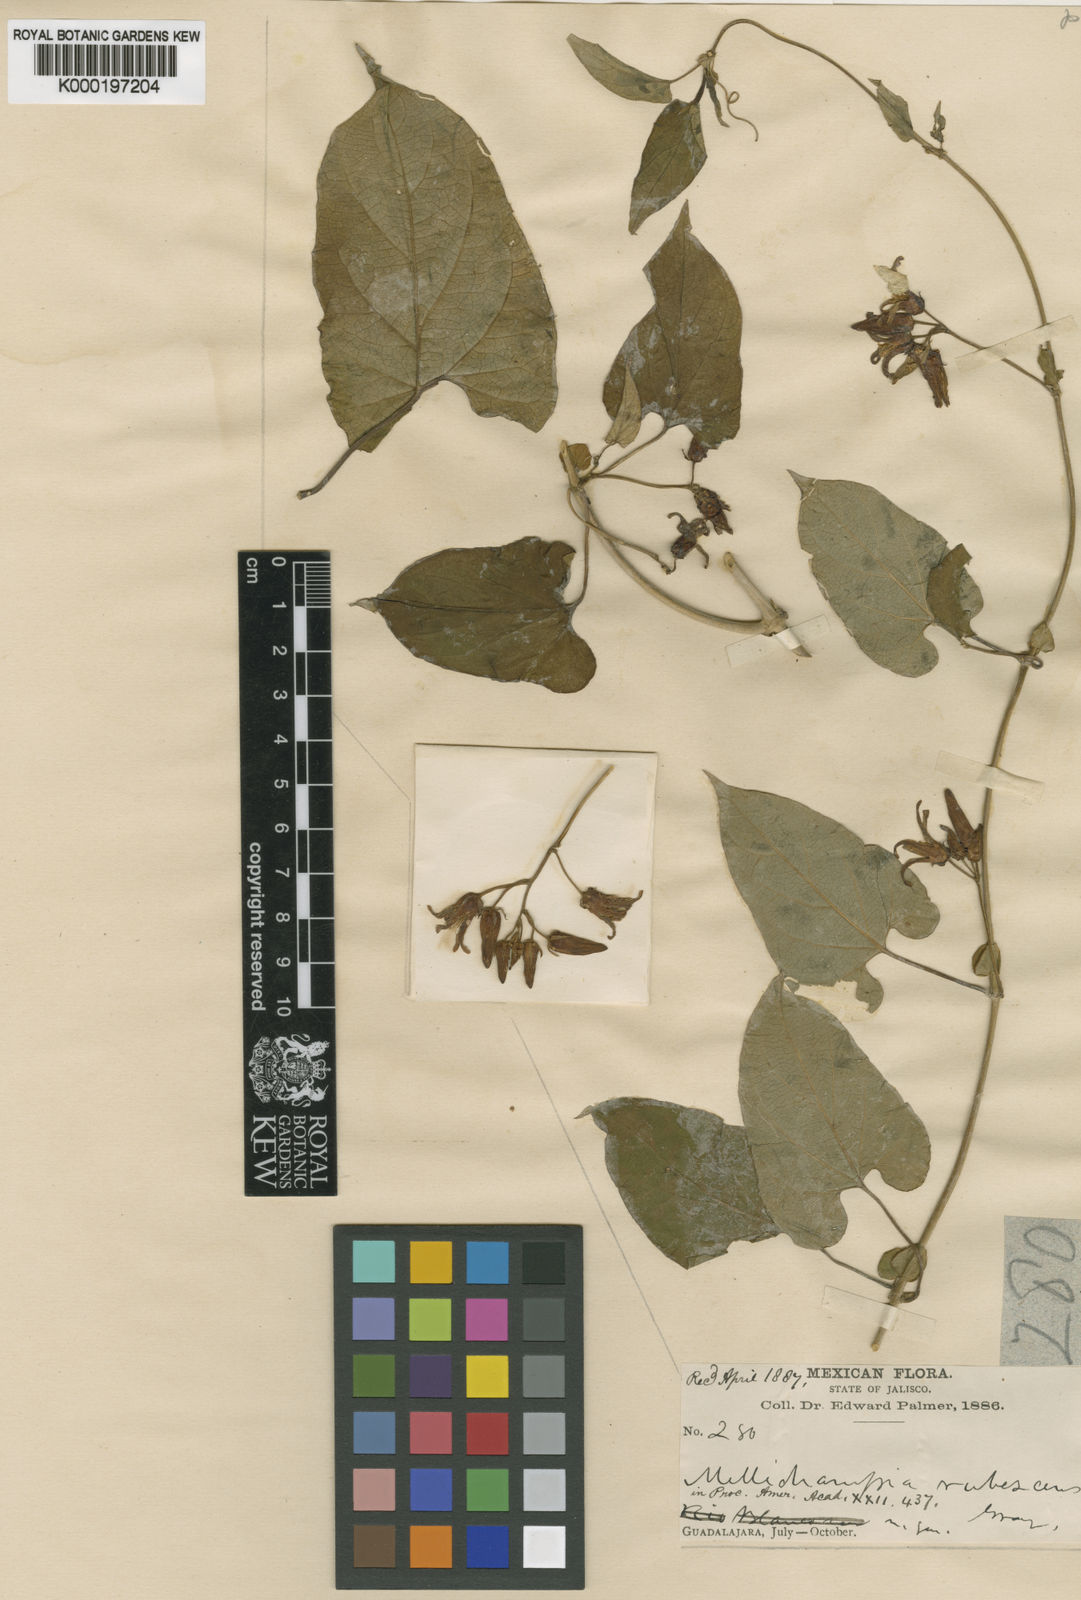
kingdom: Plantae
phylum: Tracheophyta
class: Magnoliopsida
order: Gentianales
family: Apocynaceae
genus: Cynanchum
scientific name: Cynanchum ligulatum
